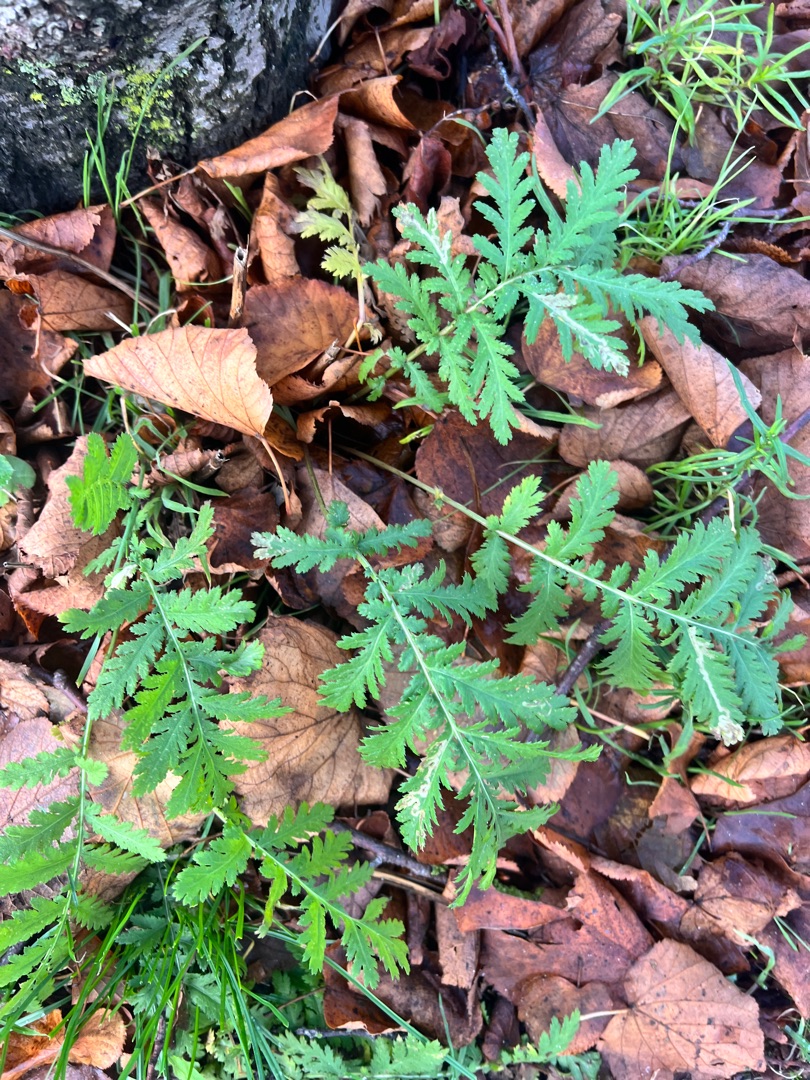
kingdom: Plantae
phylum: Tracheophyta
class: Magnoliopsida
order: Asterales
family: Asteraceae
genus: Tanacetum
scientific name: Tanacetum vulgare
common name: Rejnfan
